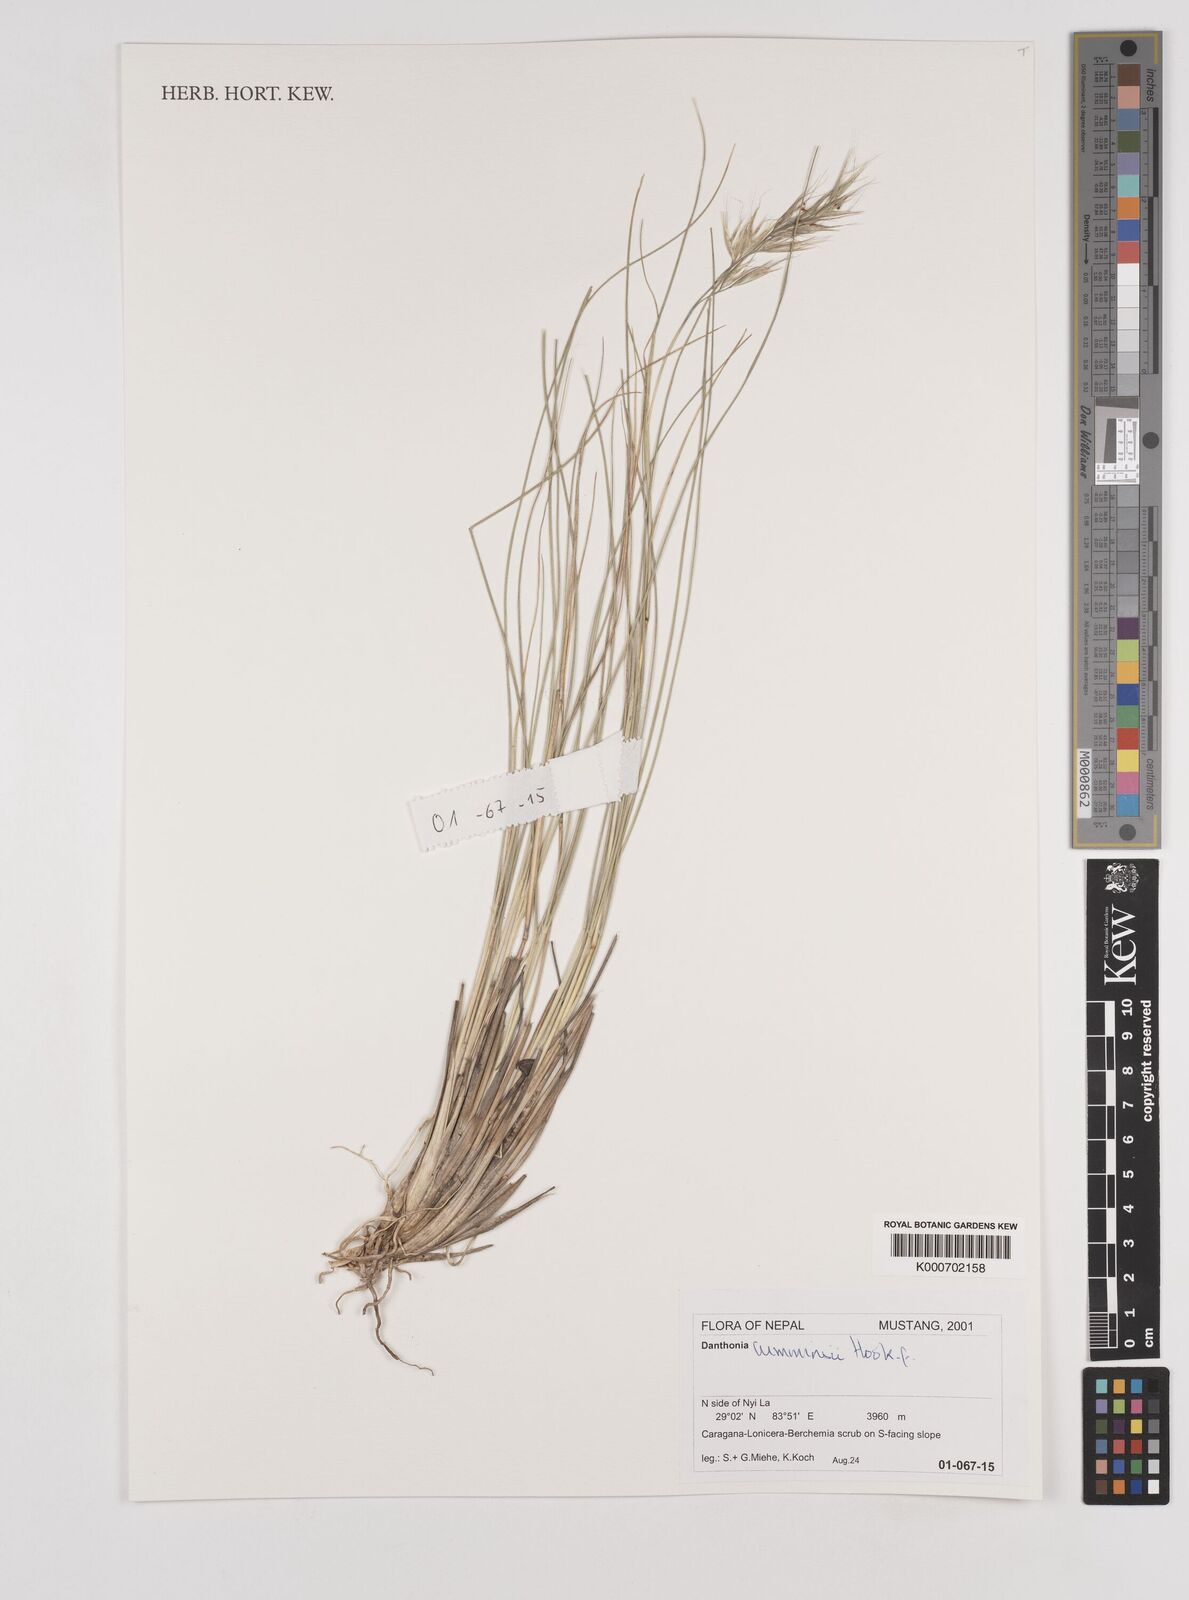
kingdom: Plantae
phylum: Tracheophyta
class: Liliopsida
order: Poales
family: Poaceae
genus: Tenaxia
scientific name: Tenaxia cumminsii
